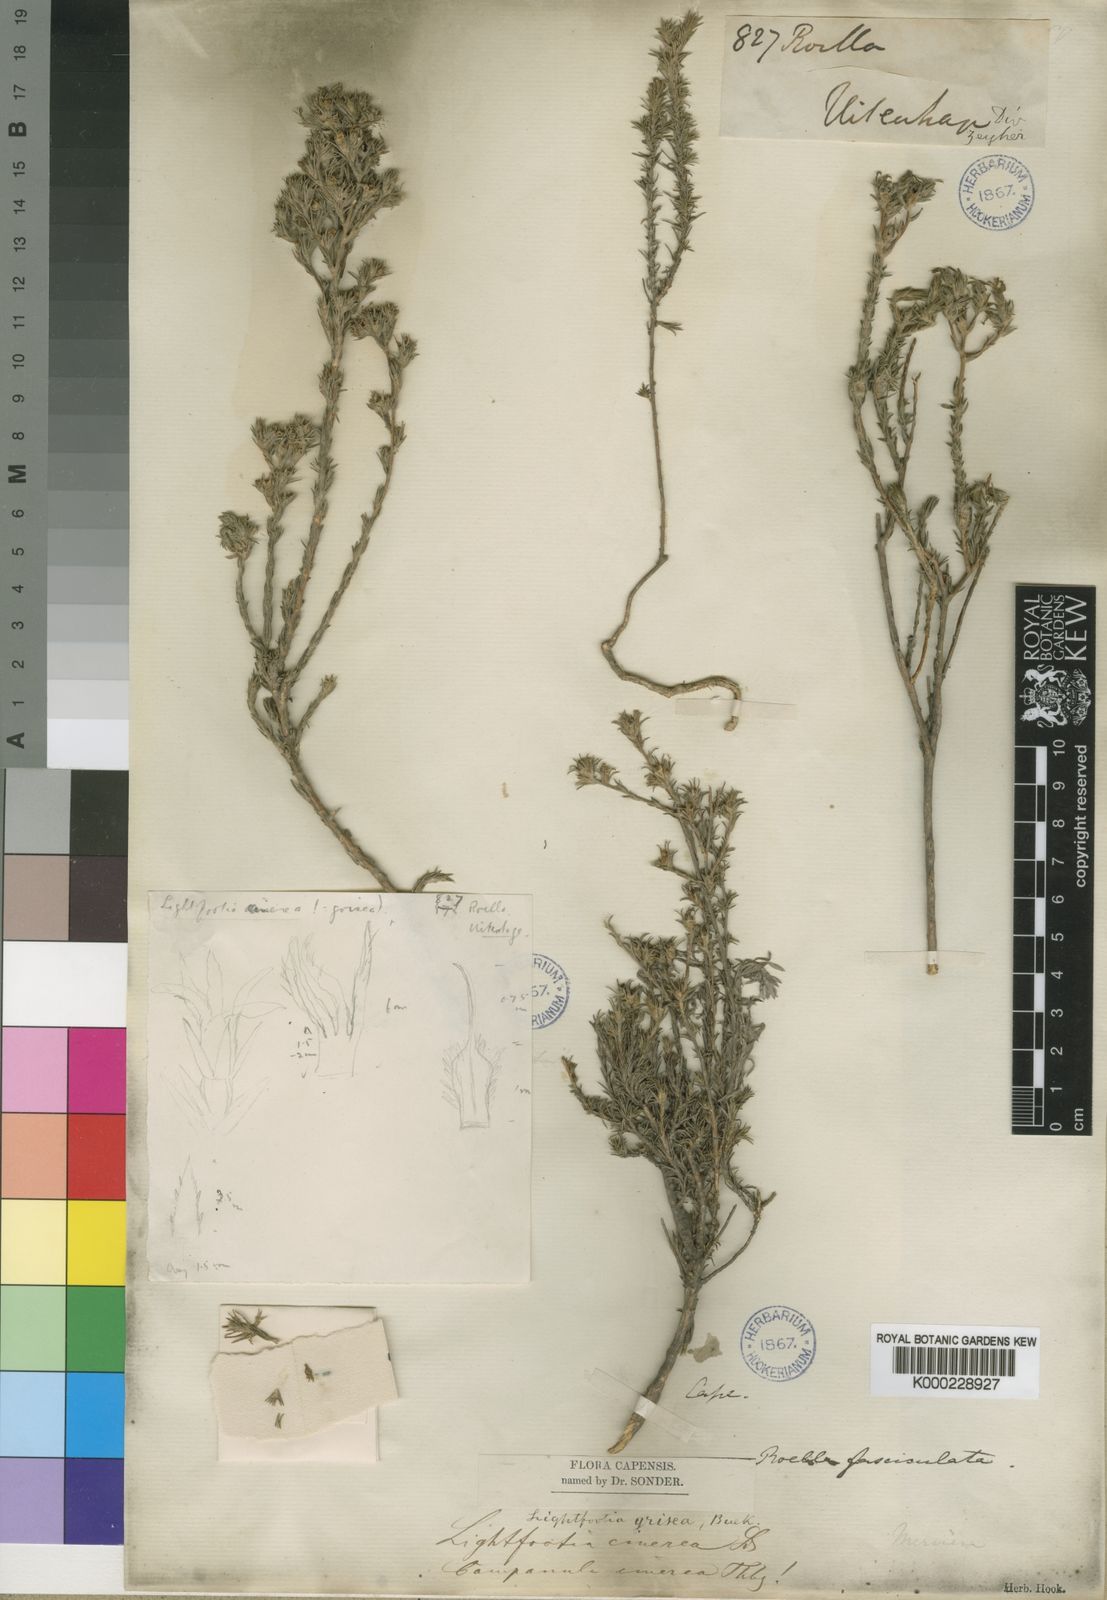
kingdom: Plantae
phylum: Tracheophyta
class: Magnoliopsida
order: Asterales
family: Campanulaceae
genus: Wahlenbergia
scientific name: Wahlenbergia cinerea
